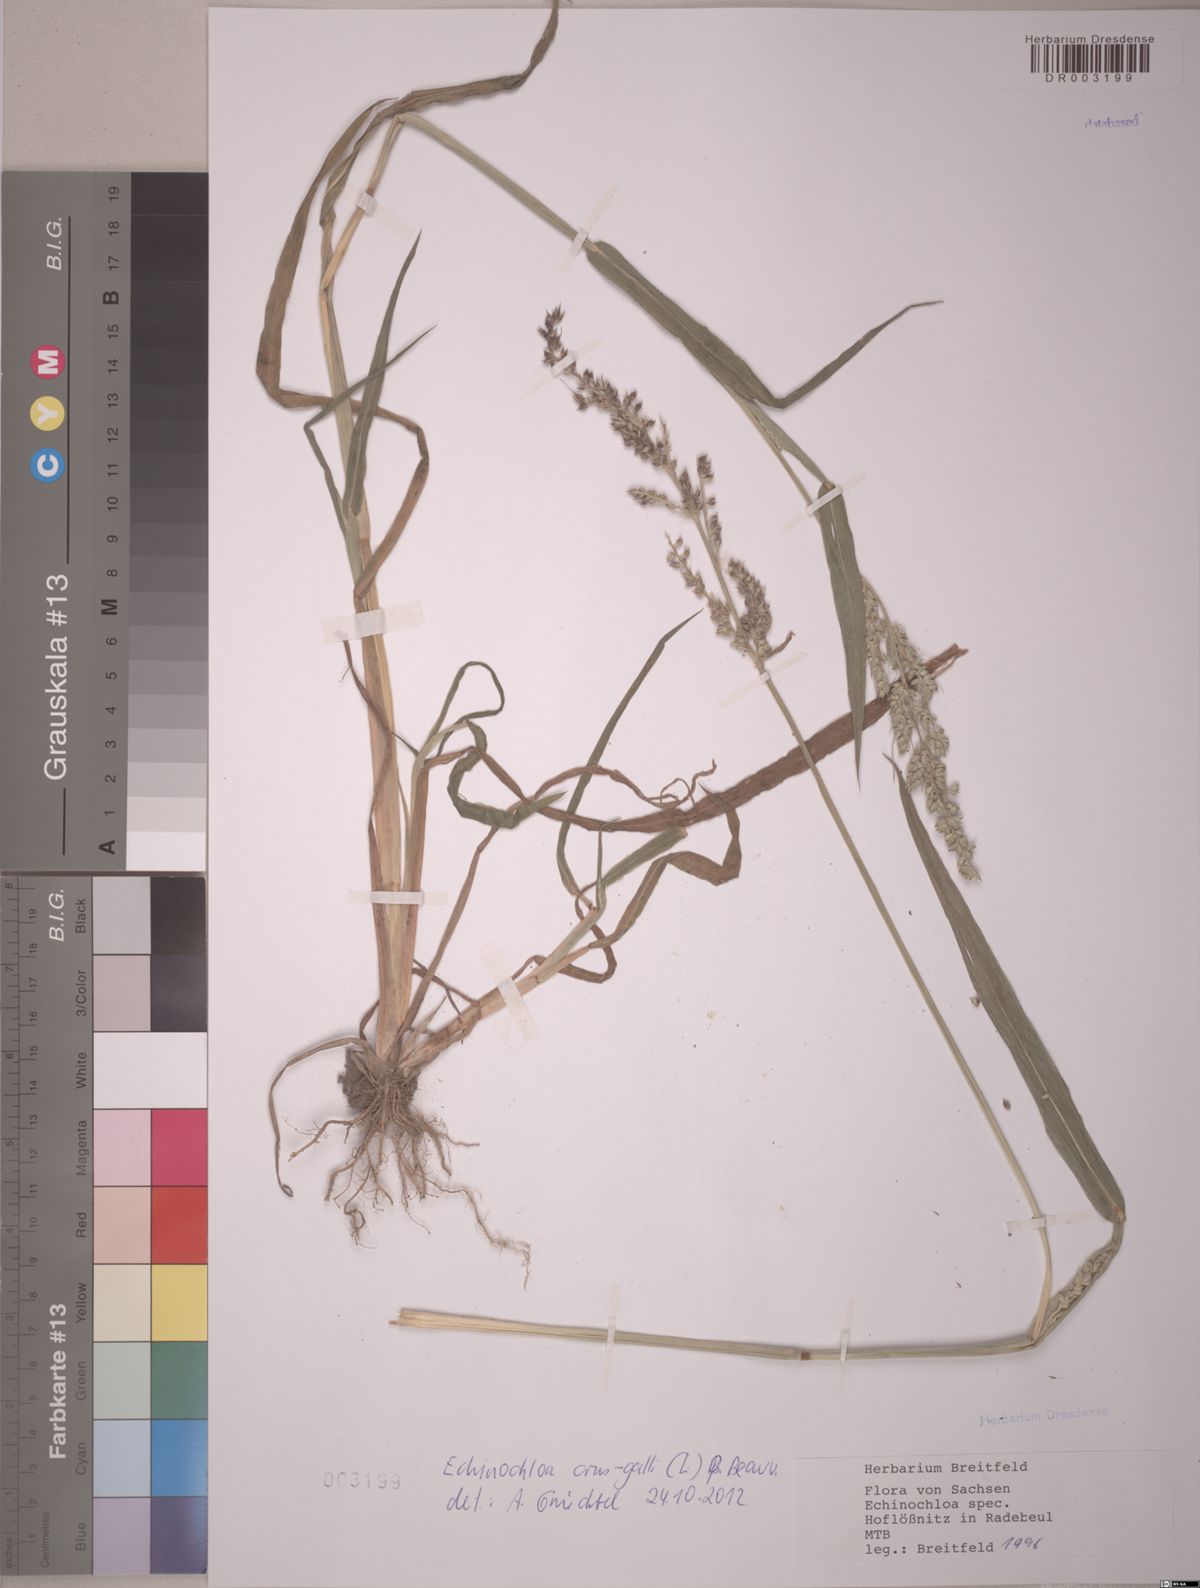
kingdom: Plantae
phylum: Tracheophyta
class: Liliopsida
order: Poales
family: Poaceae
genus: Echinochloa
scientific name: Echinochloa crus-galli
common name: Cockspur
